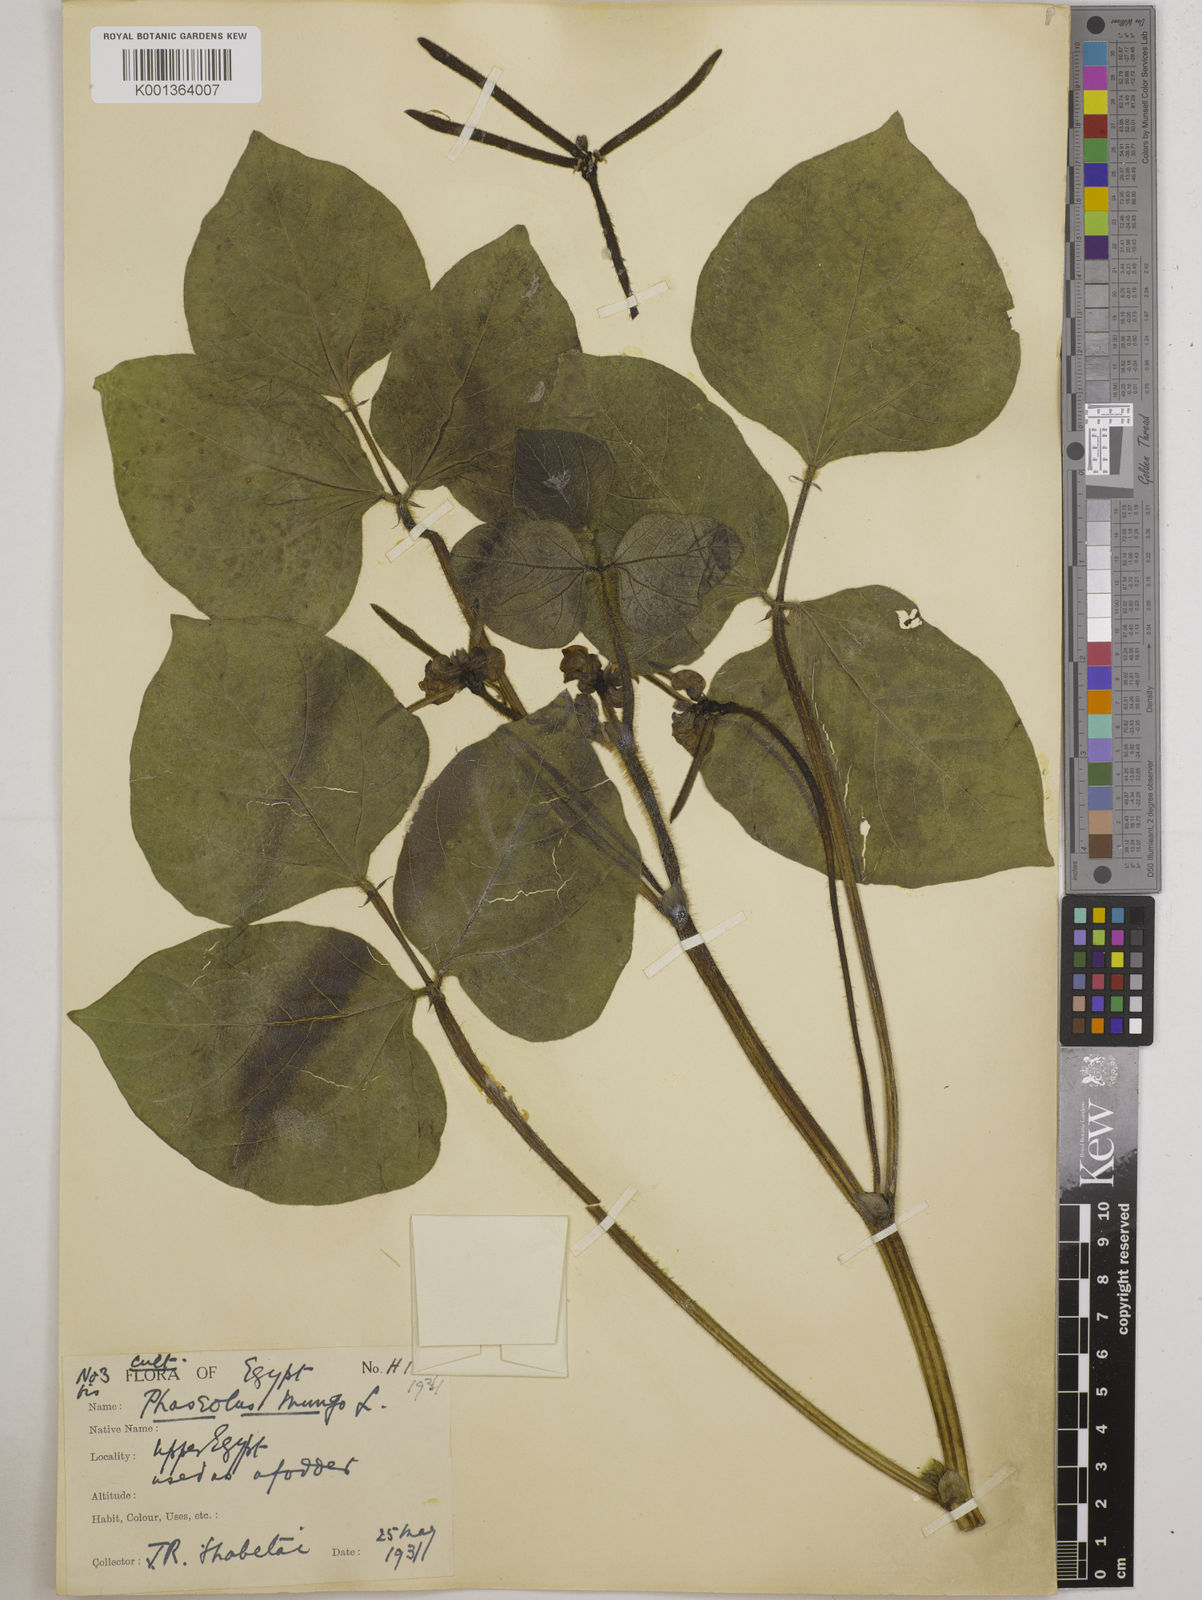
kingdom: Plantae
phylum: Tracheophyta
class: Magnoliopsida
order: Fabales
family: Fabaceae
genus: Vigna
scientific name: Vigna radiata
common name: Mung-bean
